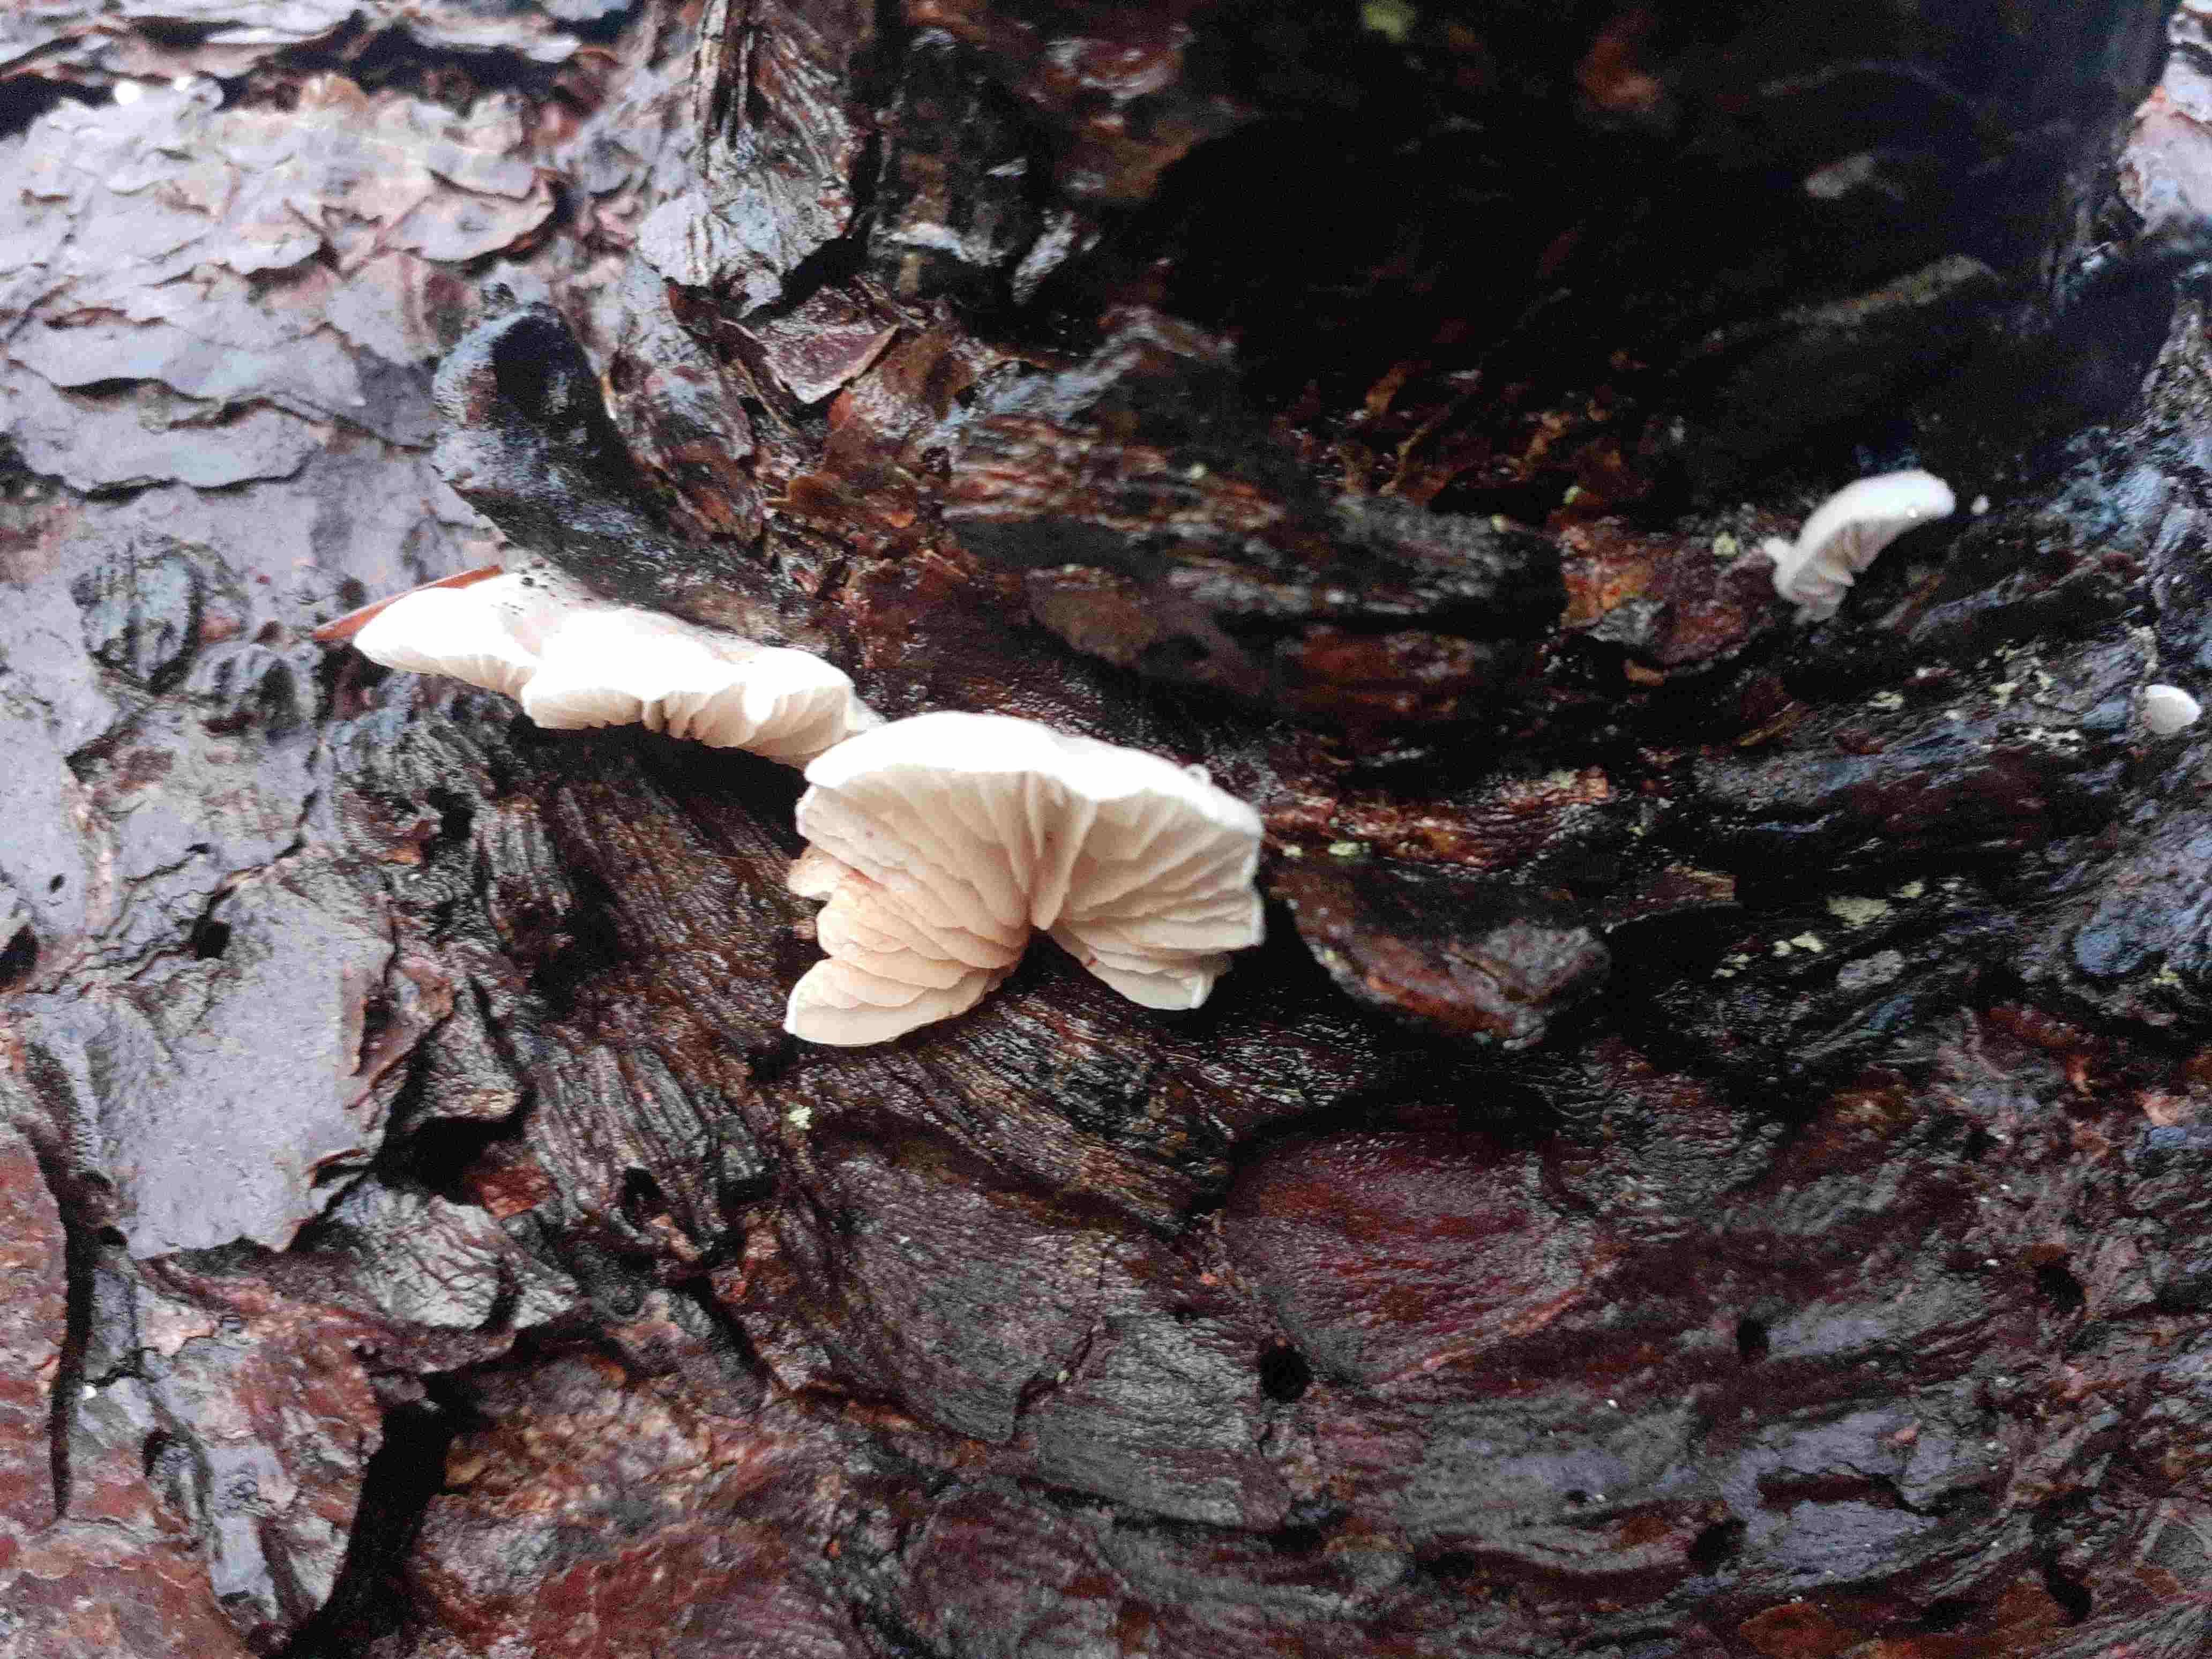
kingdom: Fungi
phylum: Basidiomycota
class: Agaricomycetes
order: Agaricales
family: Crepidotaceae
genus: Crepidotus
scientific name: Crepidotus kubickae
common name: gran-muslingesvamp
